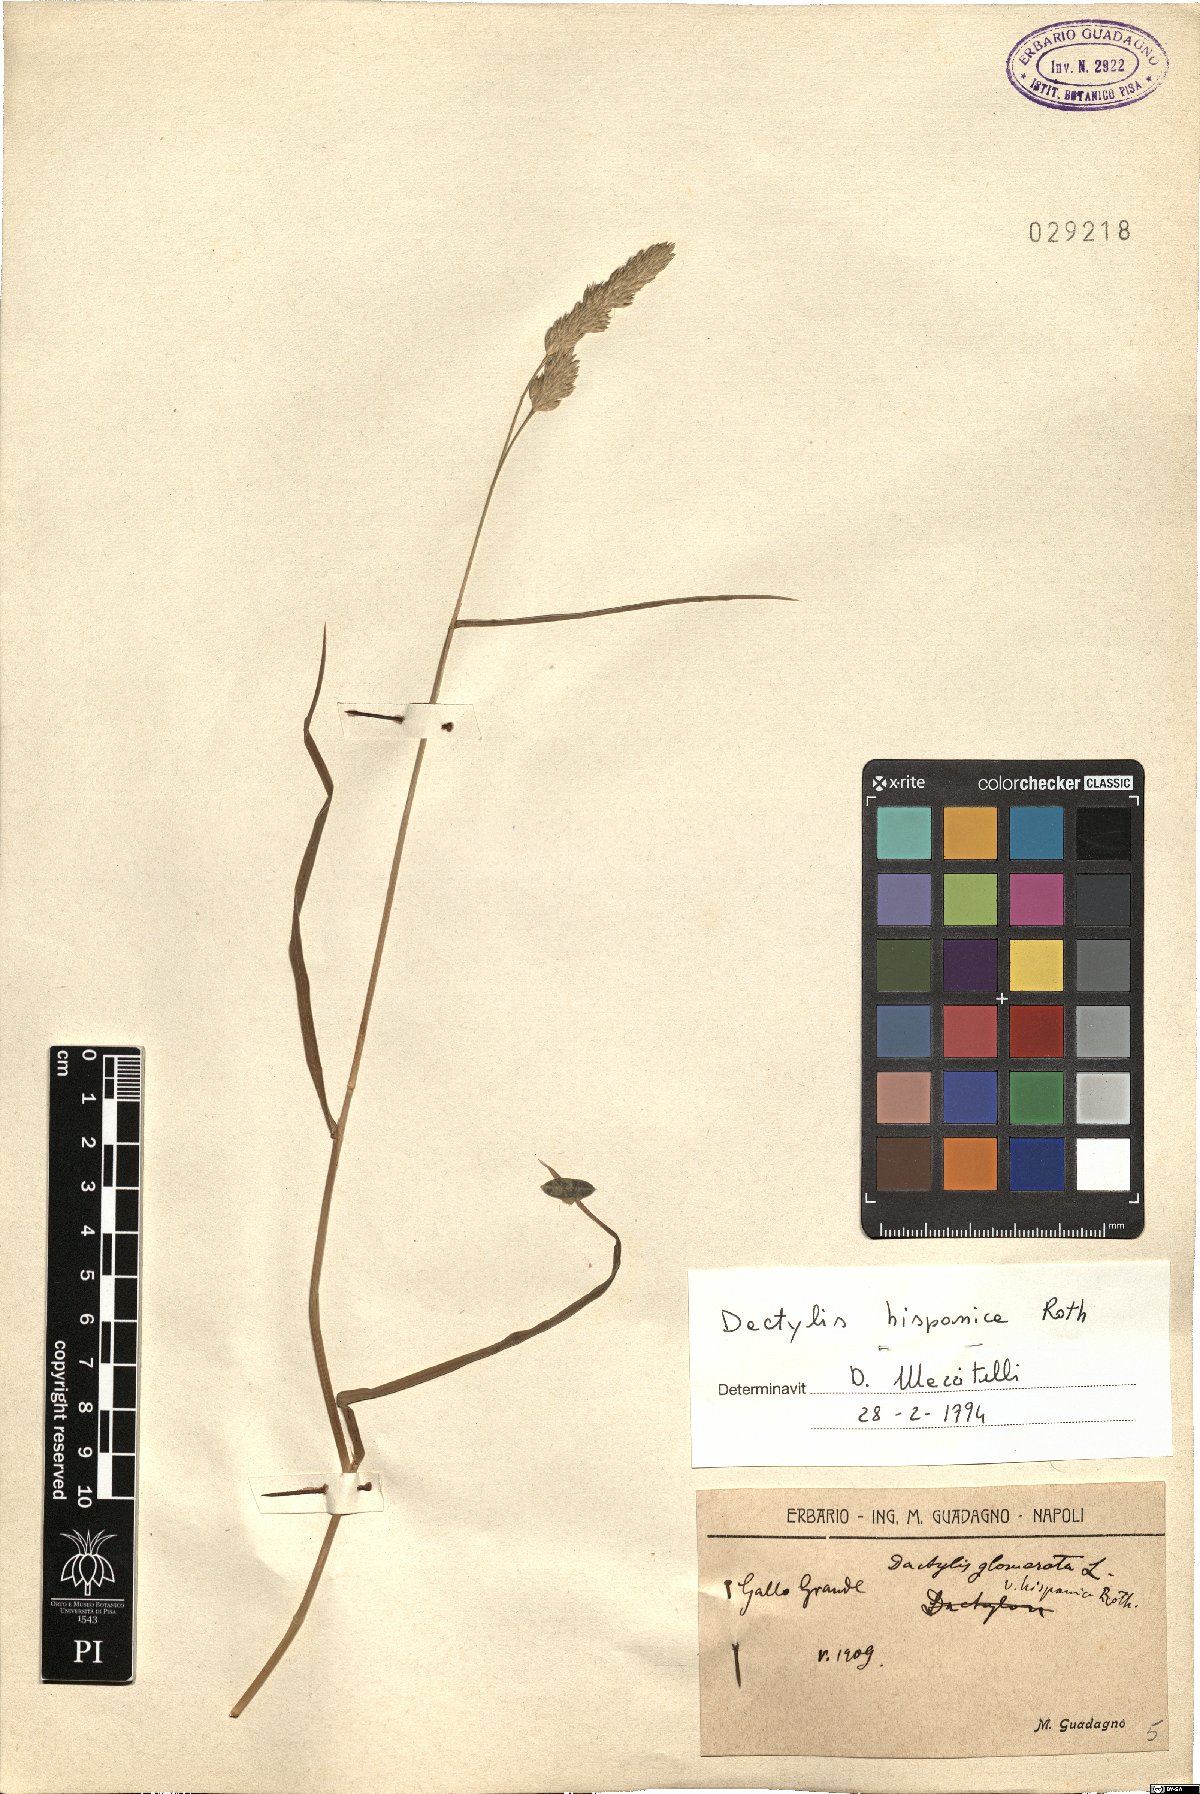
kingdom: Plantae
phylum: Tracheophyta
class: Liliopsida
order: Poales
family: Poaceae
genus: Dactylis
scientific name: Dactylis glomerata
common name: Orchardgrass
